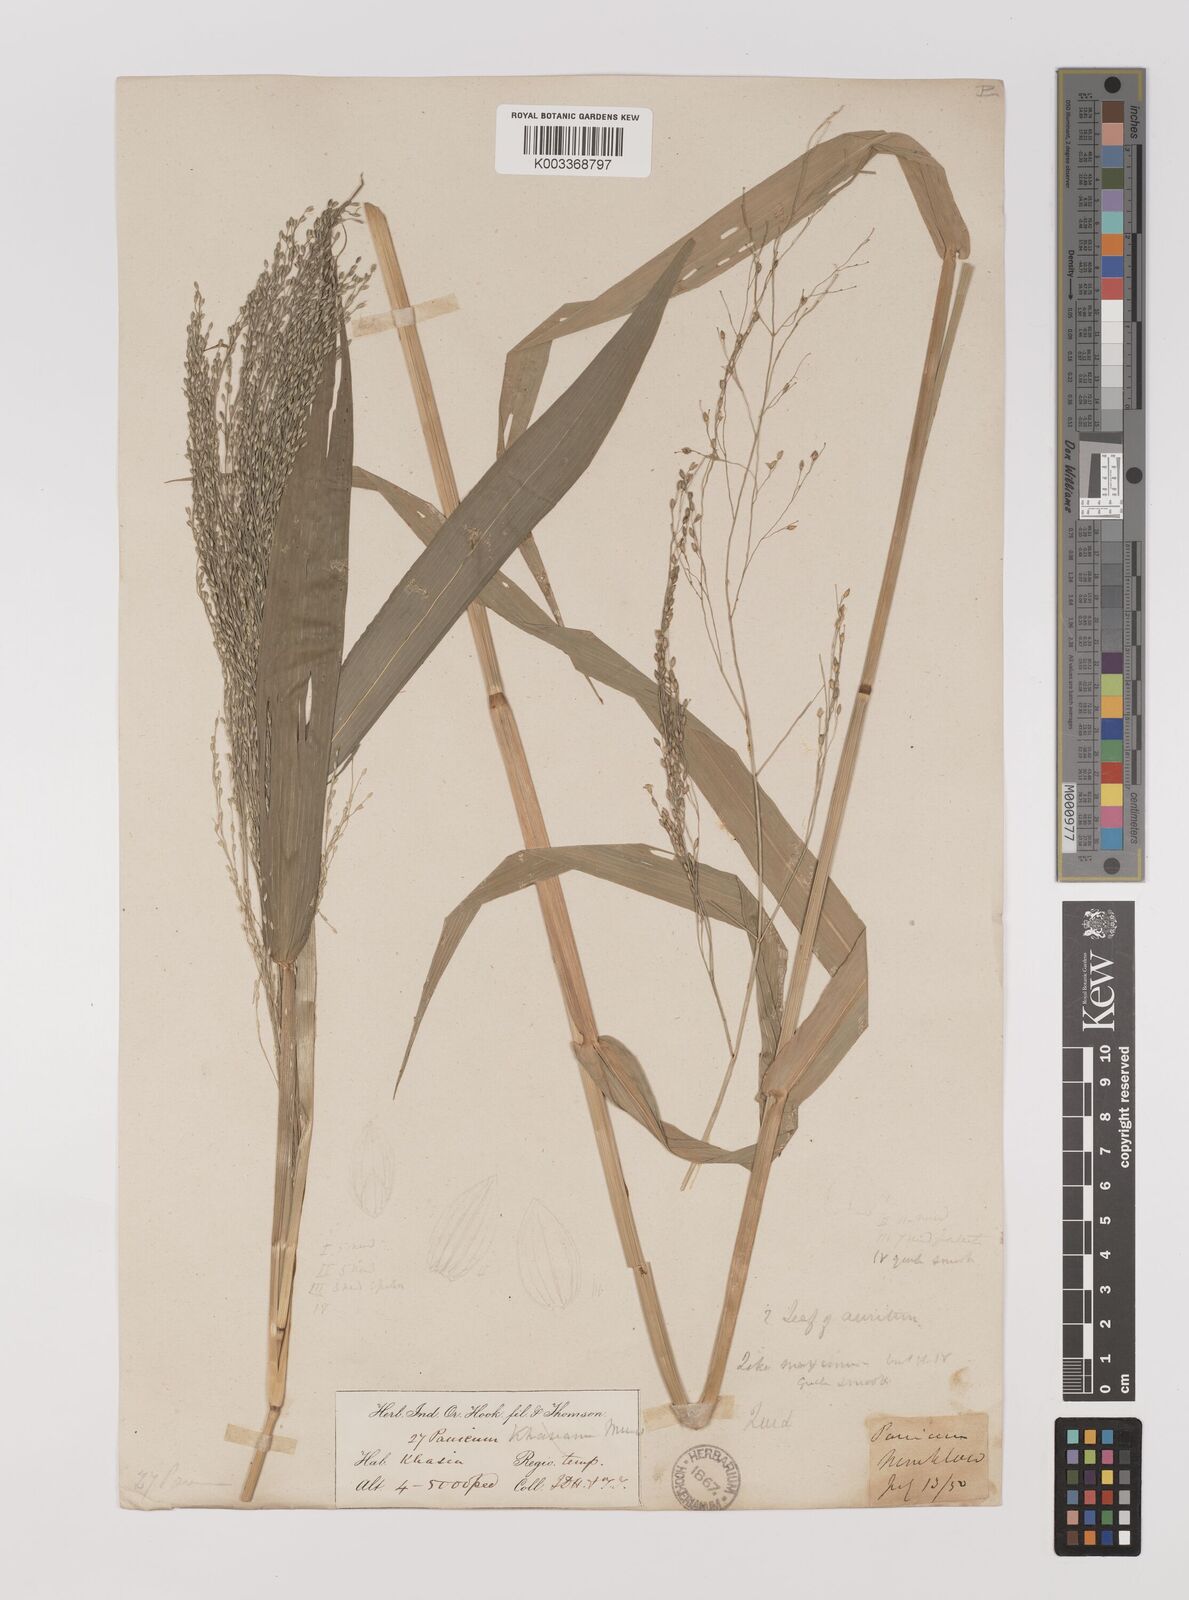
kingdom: Plantae
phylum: Tracheophyta
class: Liliopsida
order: Poales
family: Poaceae
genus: Louisiella
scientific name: Louisiella paludosa
